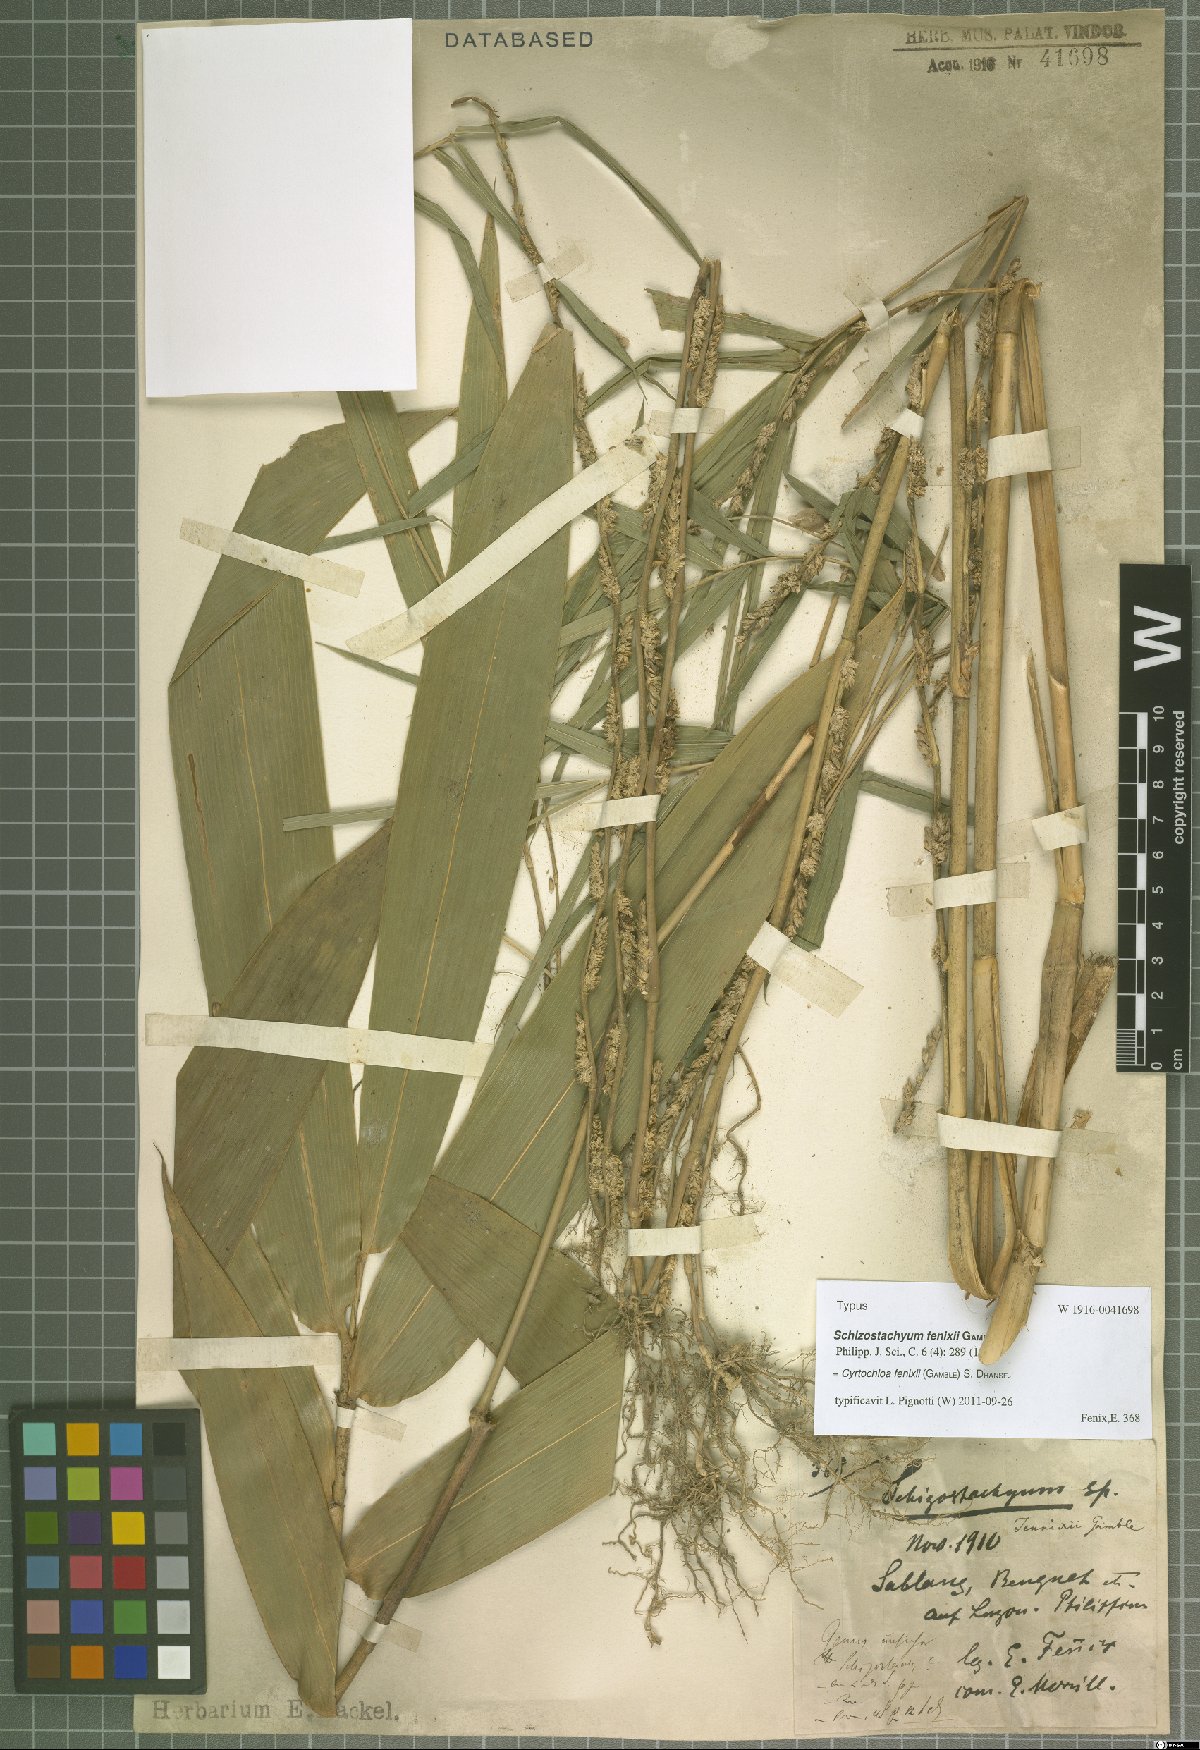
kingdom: Plantae
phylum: Tracheophyta
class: Liliopsida
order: Poales
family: Poaceae
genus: Cyrtochloa
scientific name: Cyrtochloa fenixii
